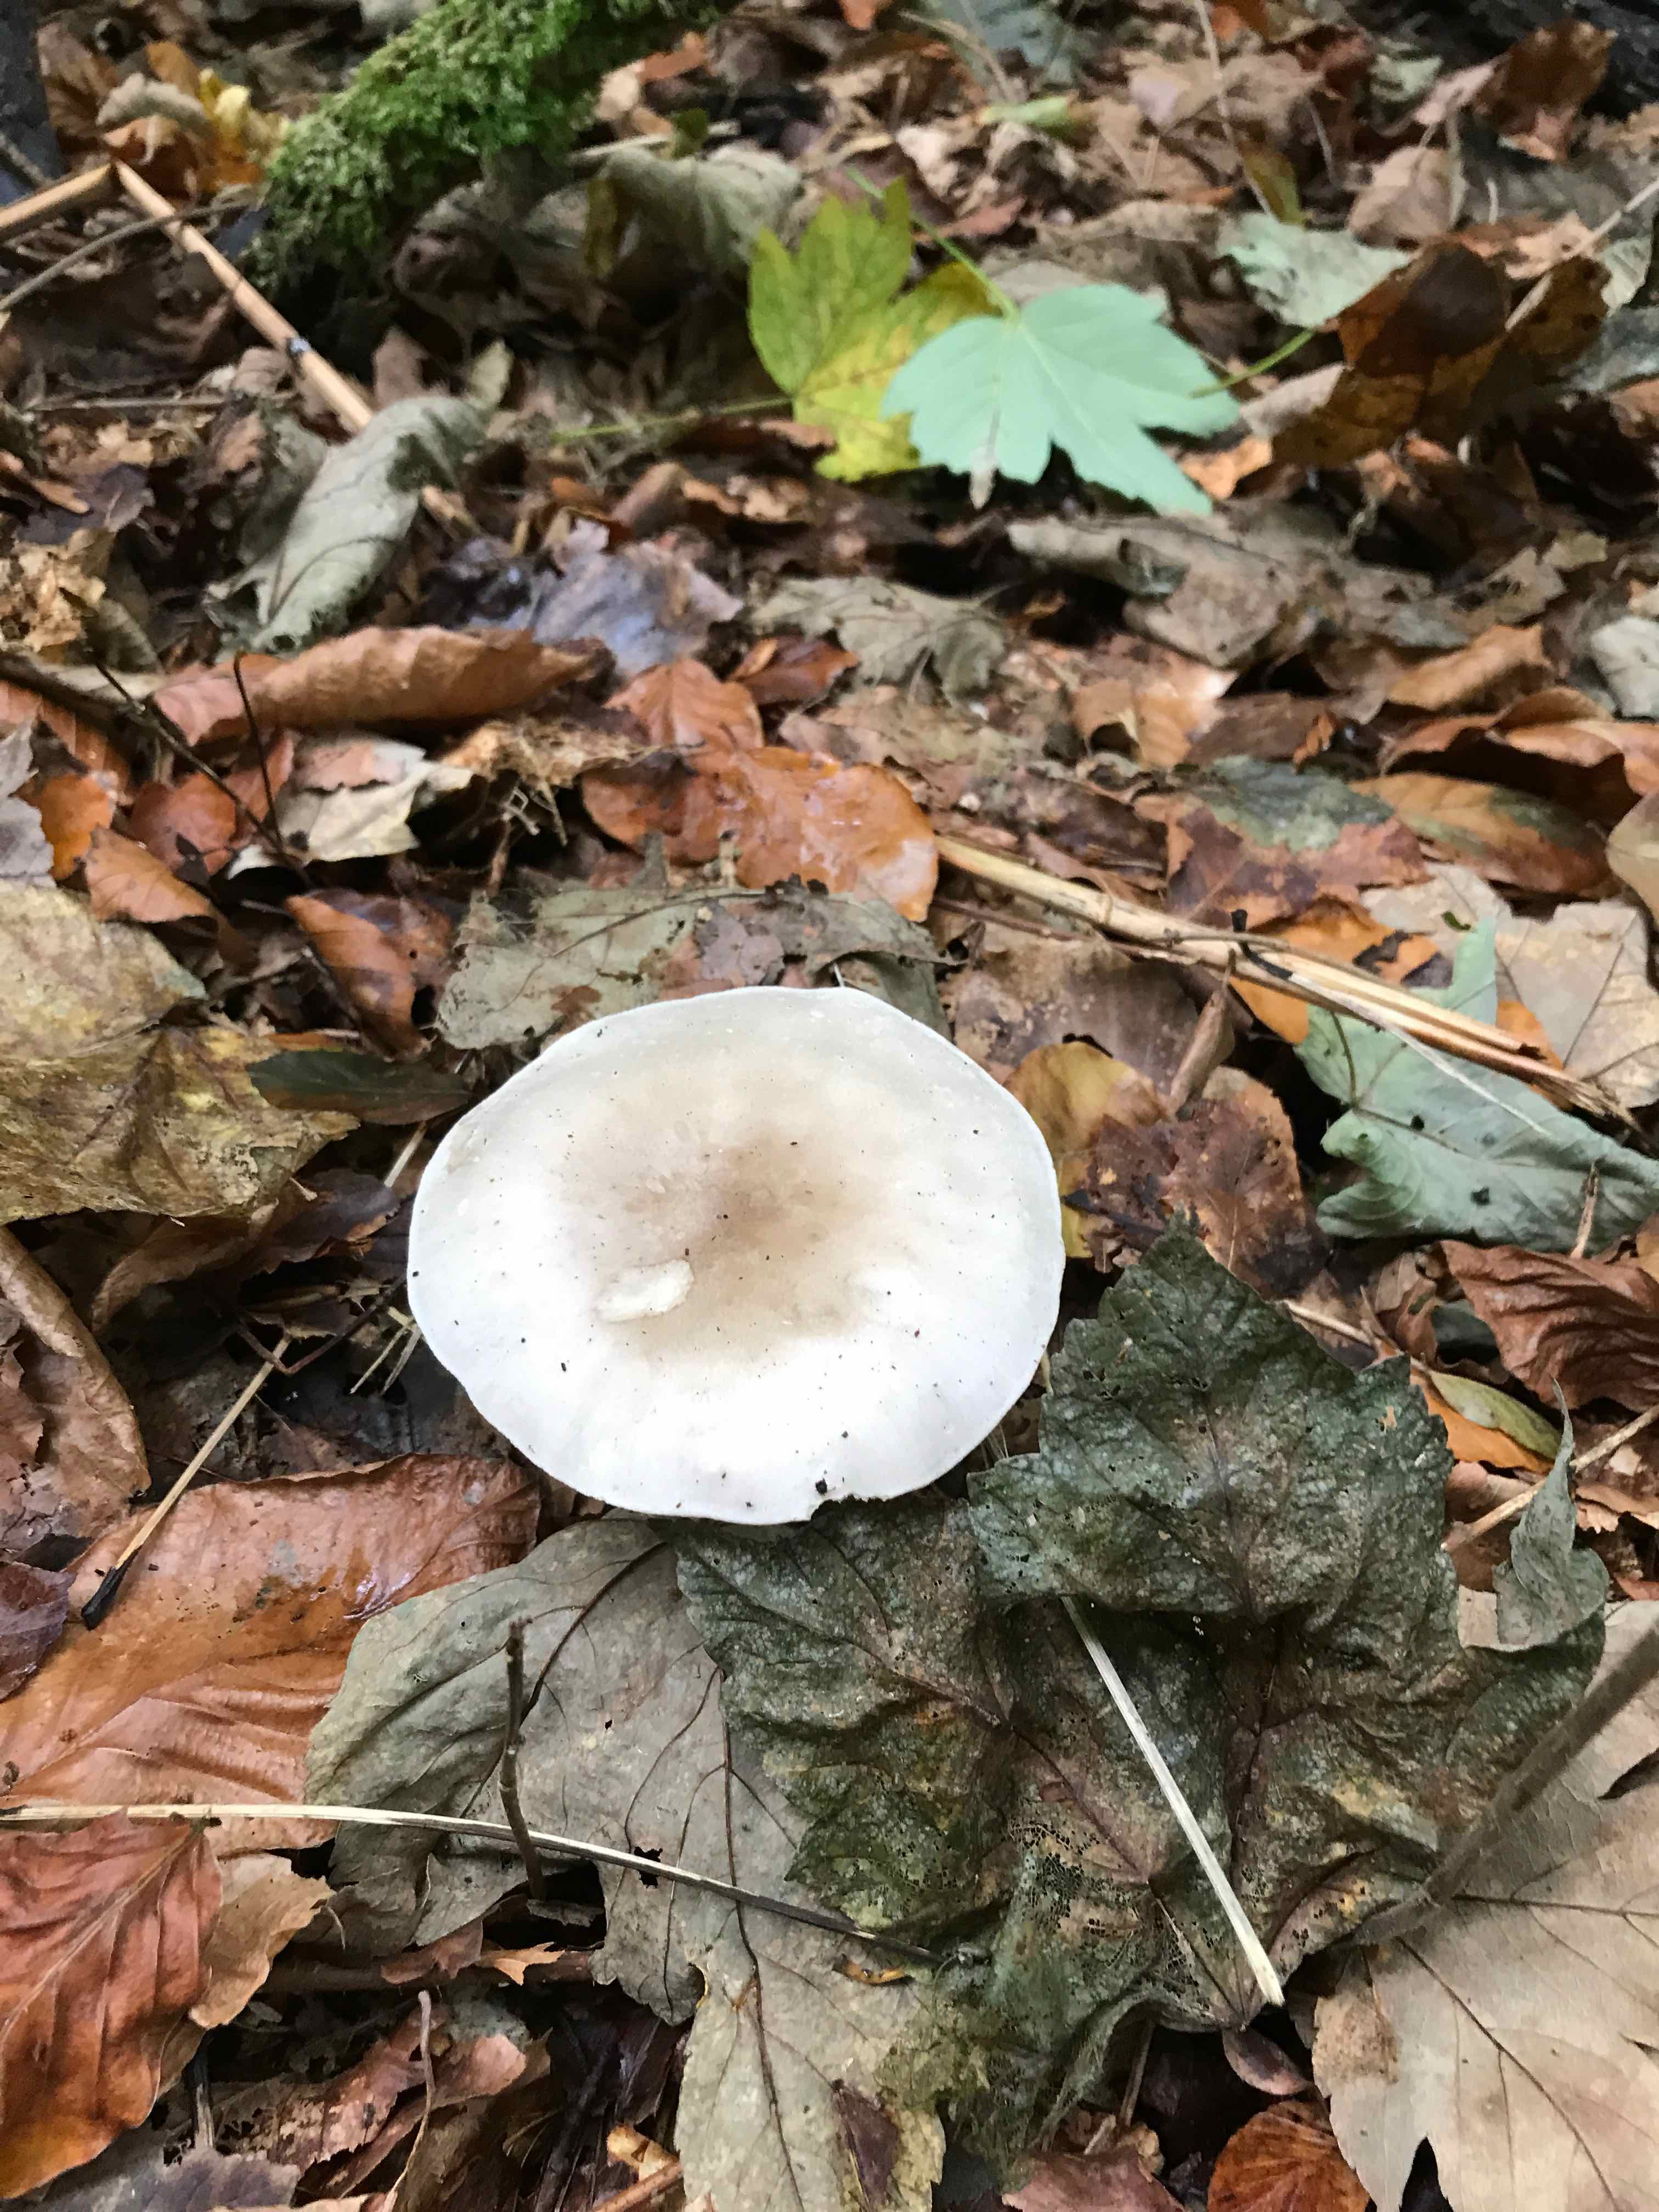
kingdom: Fungi
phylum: Basidiomycota
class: Agaricomycetes
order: Agaricales
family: Tricholomataceae
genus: Clitocybe
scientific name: Clitocybe nebularis
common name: tåge-tragthat
